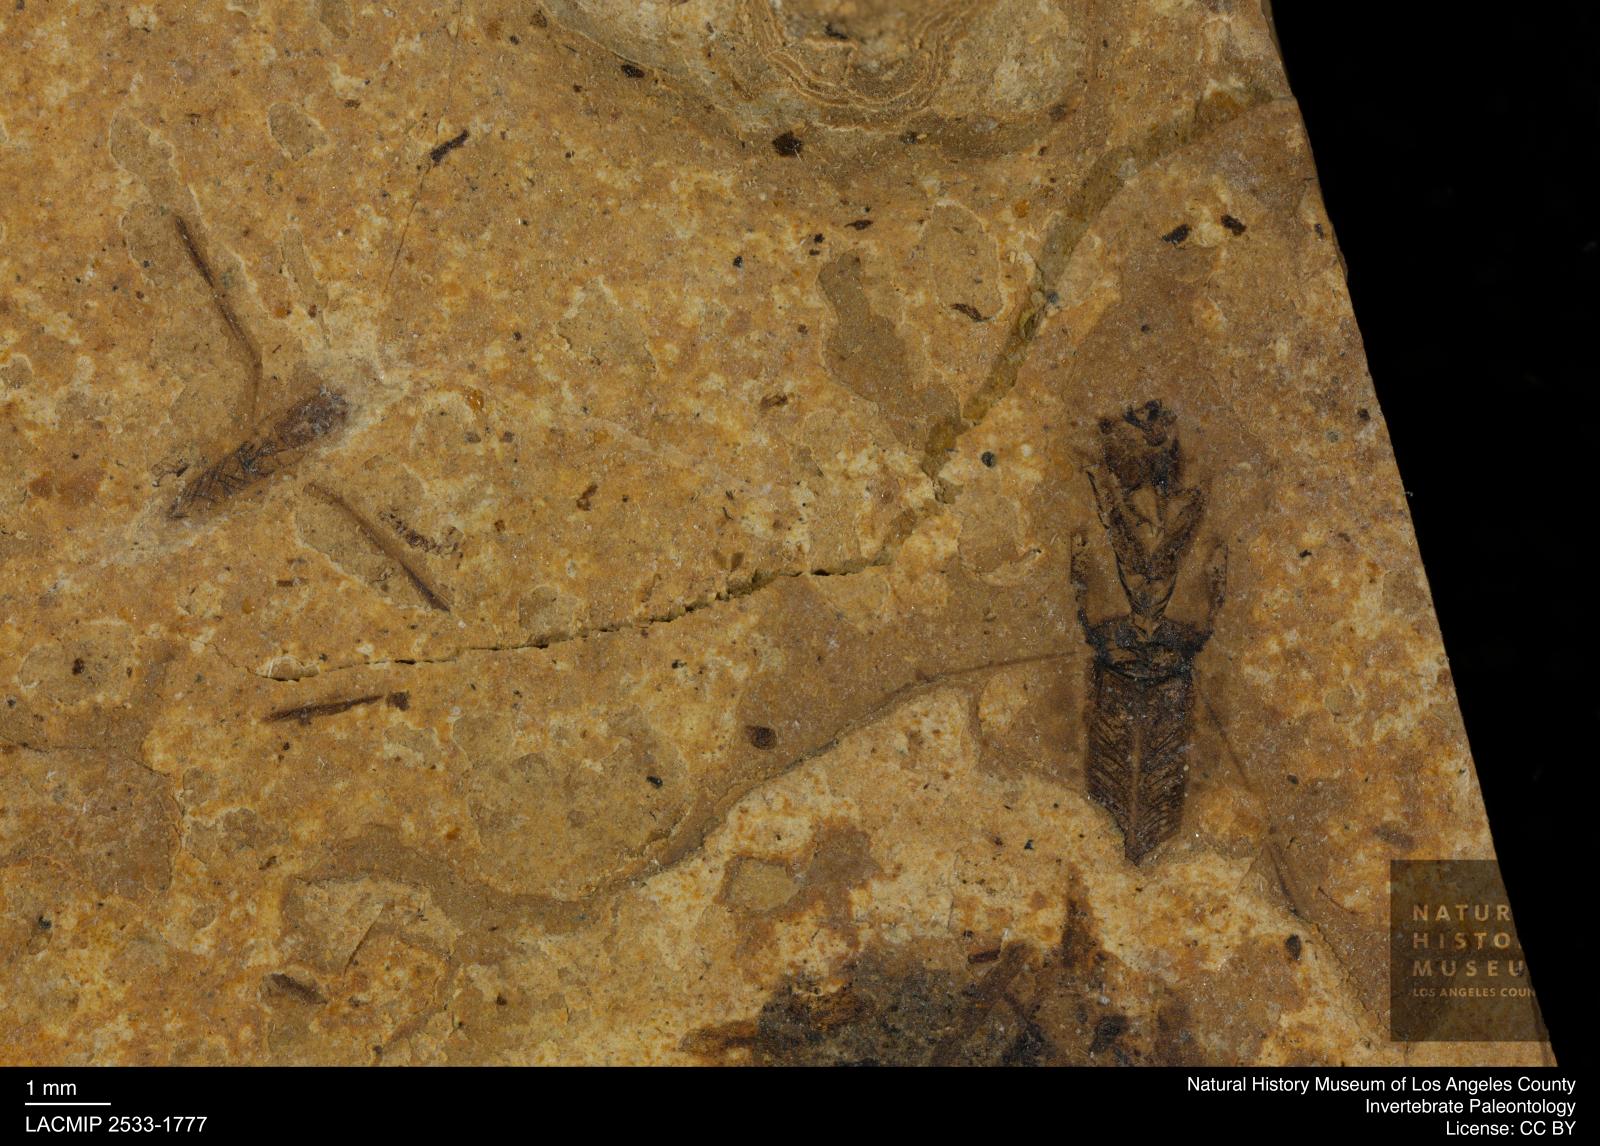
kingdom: Animalia
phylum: Arthropoda
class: Insecta
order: Hemiptera
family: Notonectidae
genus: Notonecta
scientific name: Notonecta
